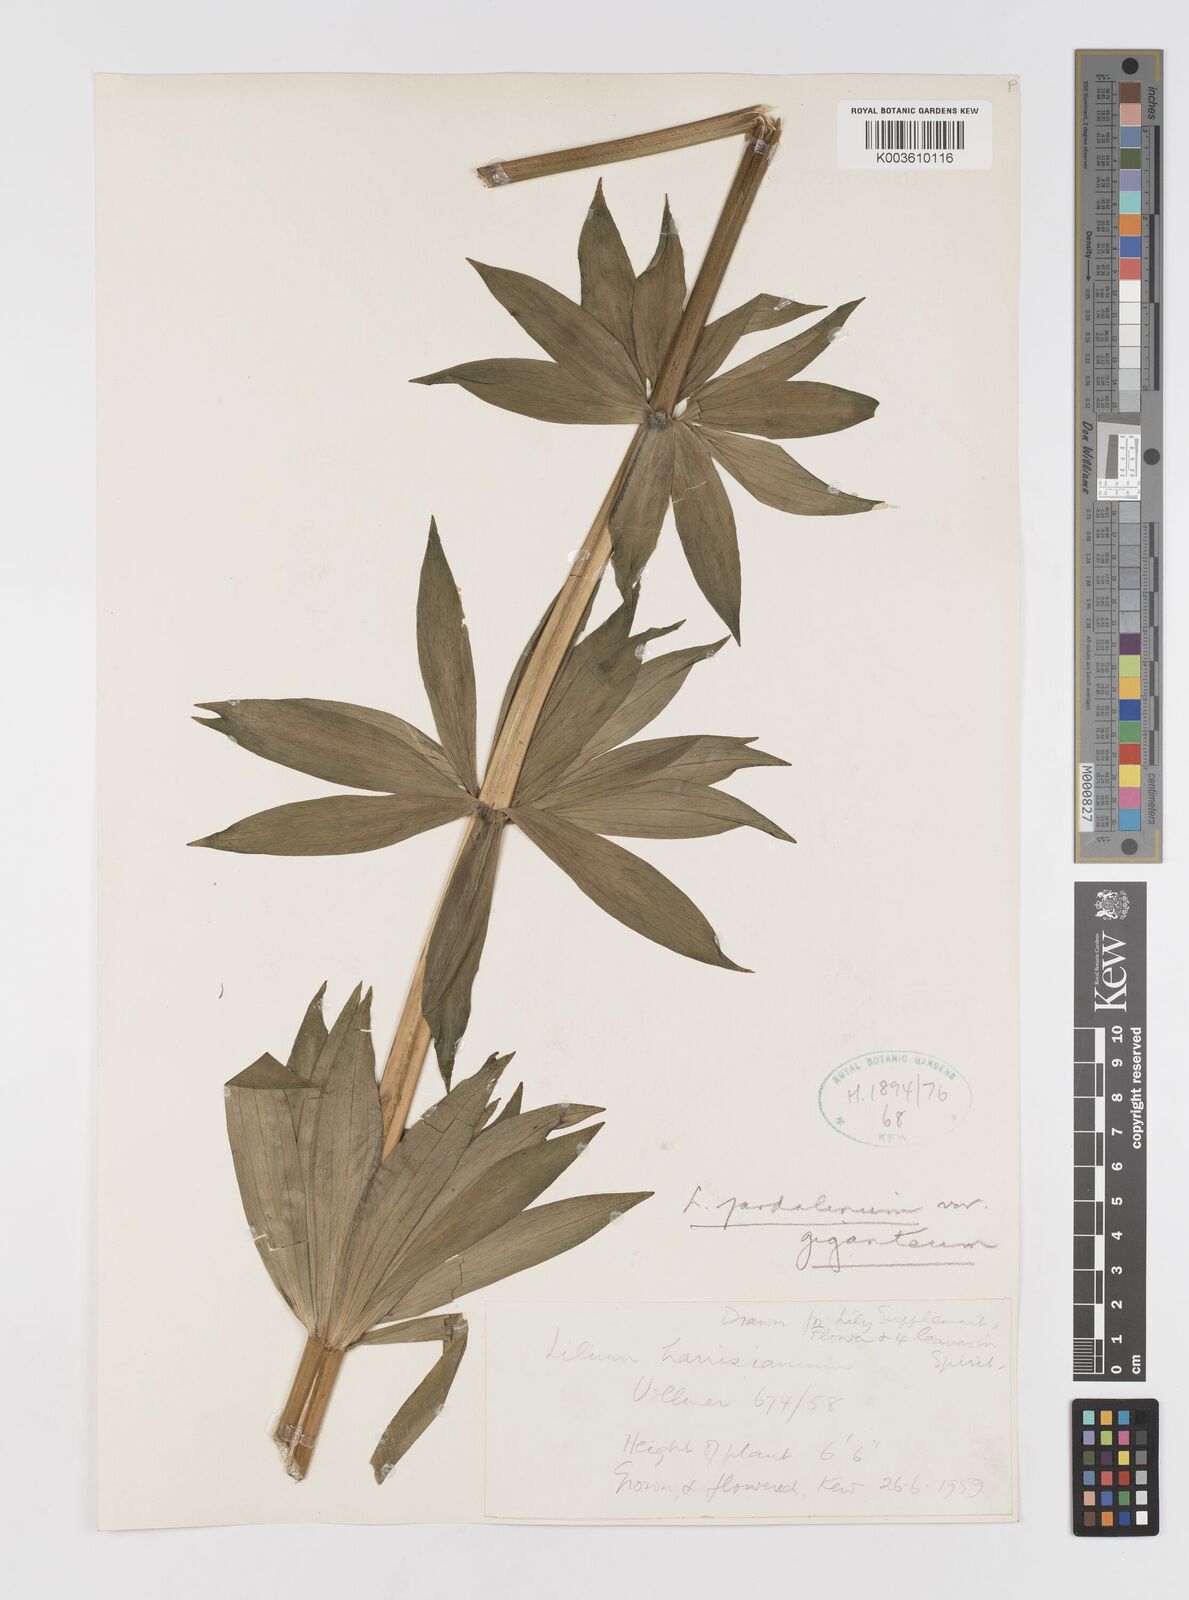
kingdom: Plantae
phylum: Tracheophyta
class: Liliopsida
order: Liliales
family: Liliaceae
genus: Lilium
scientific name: Lilium pardalinum
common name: Panther lily
